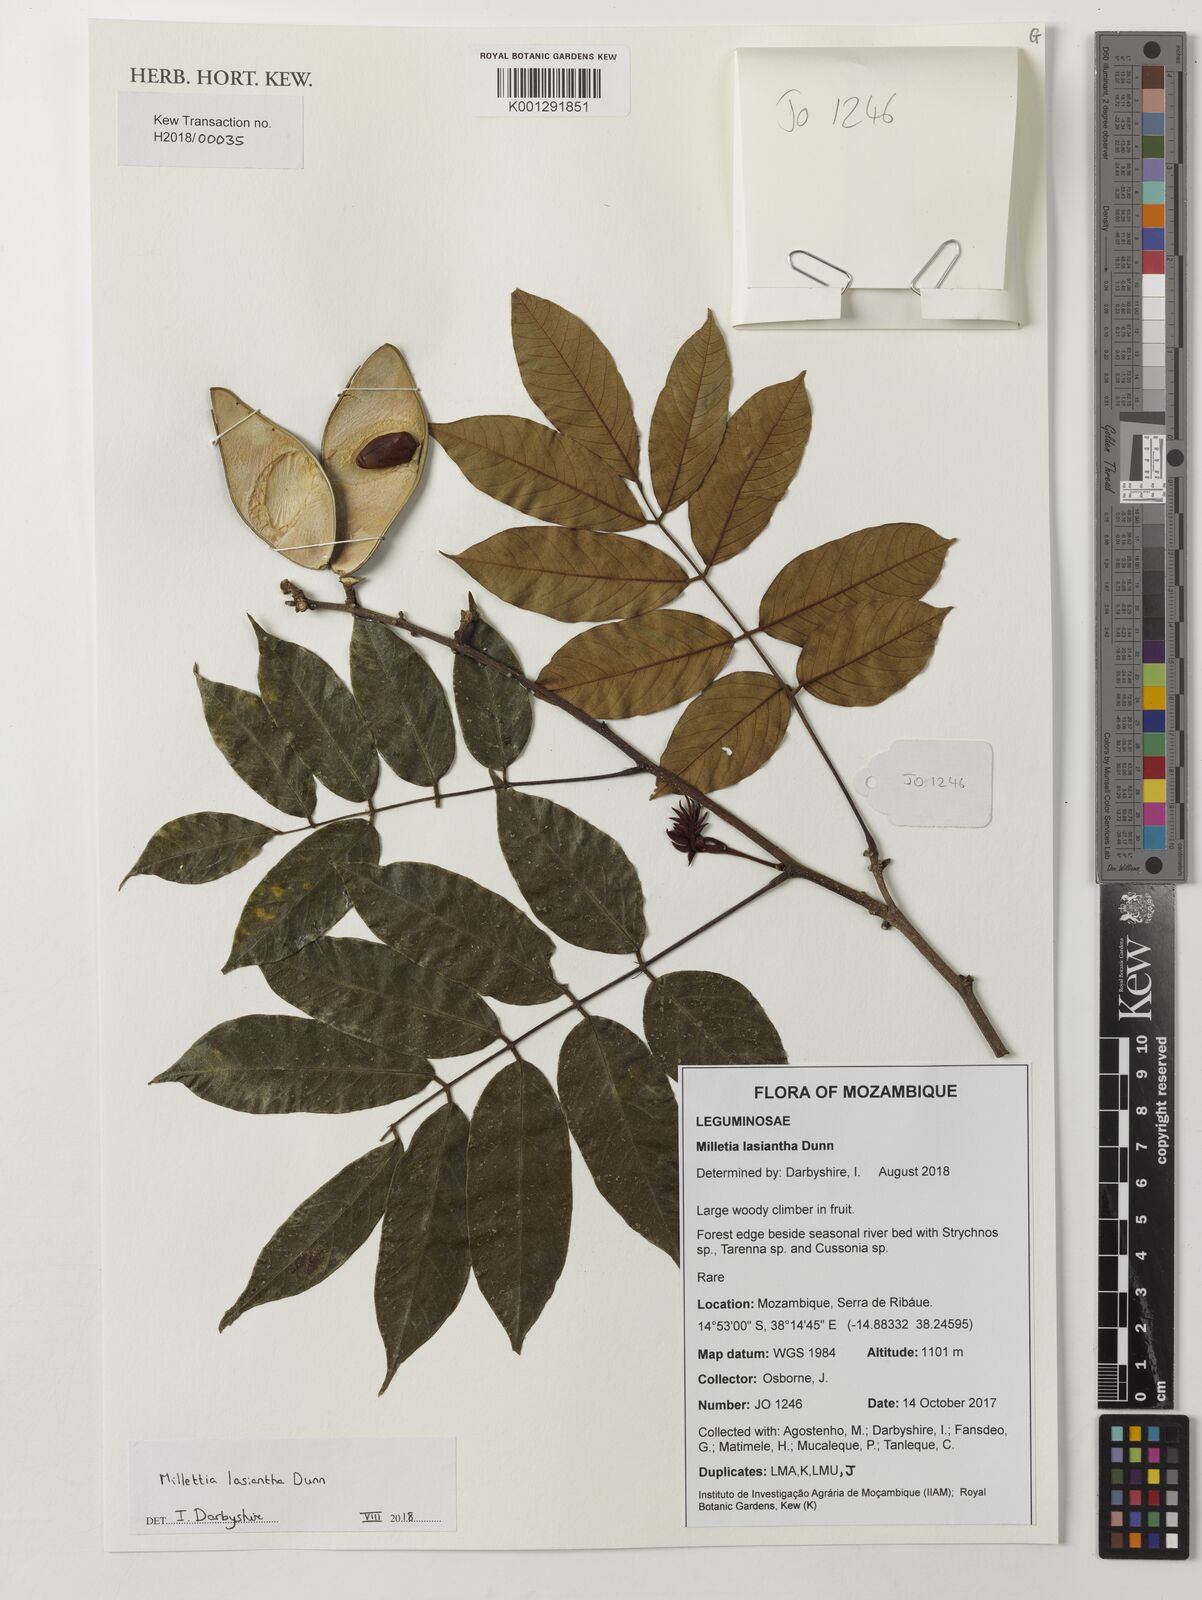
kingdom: Plantae
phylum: Tracheophyta
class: Magnoliopsida
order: Fabales
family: Fabaceae
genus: Millettia
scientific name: Millettia lasiantha
